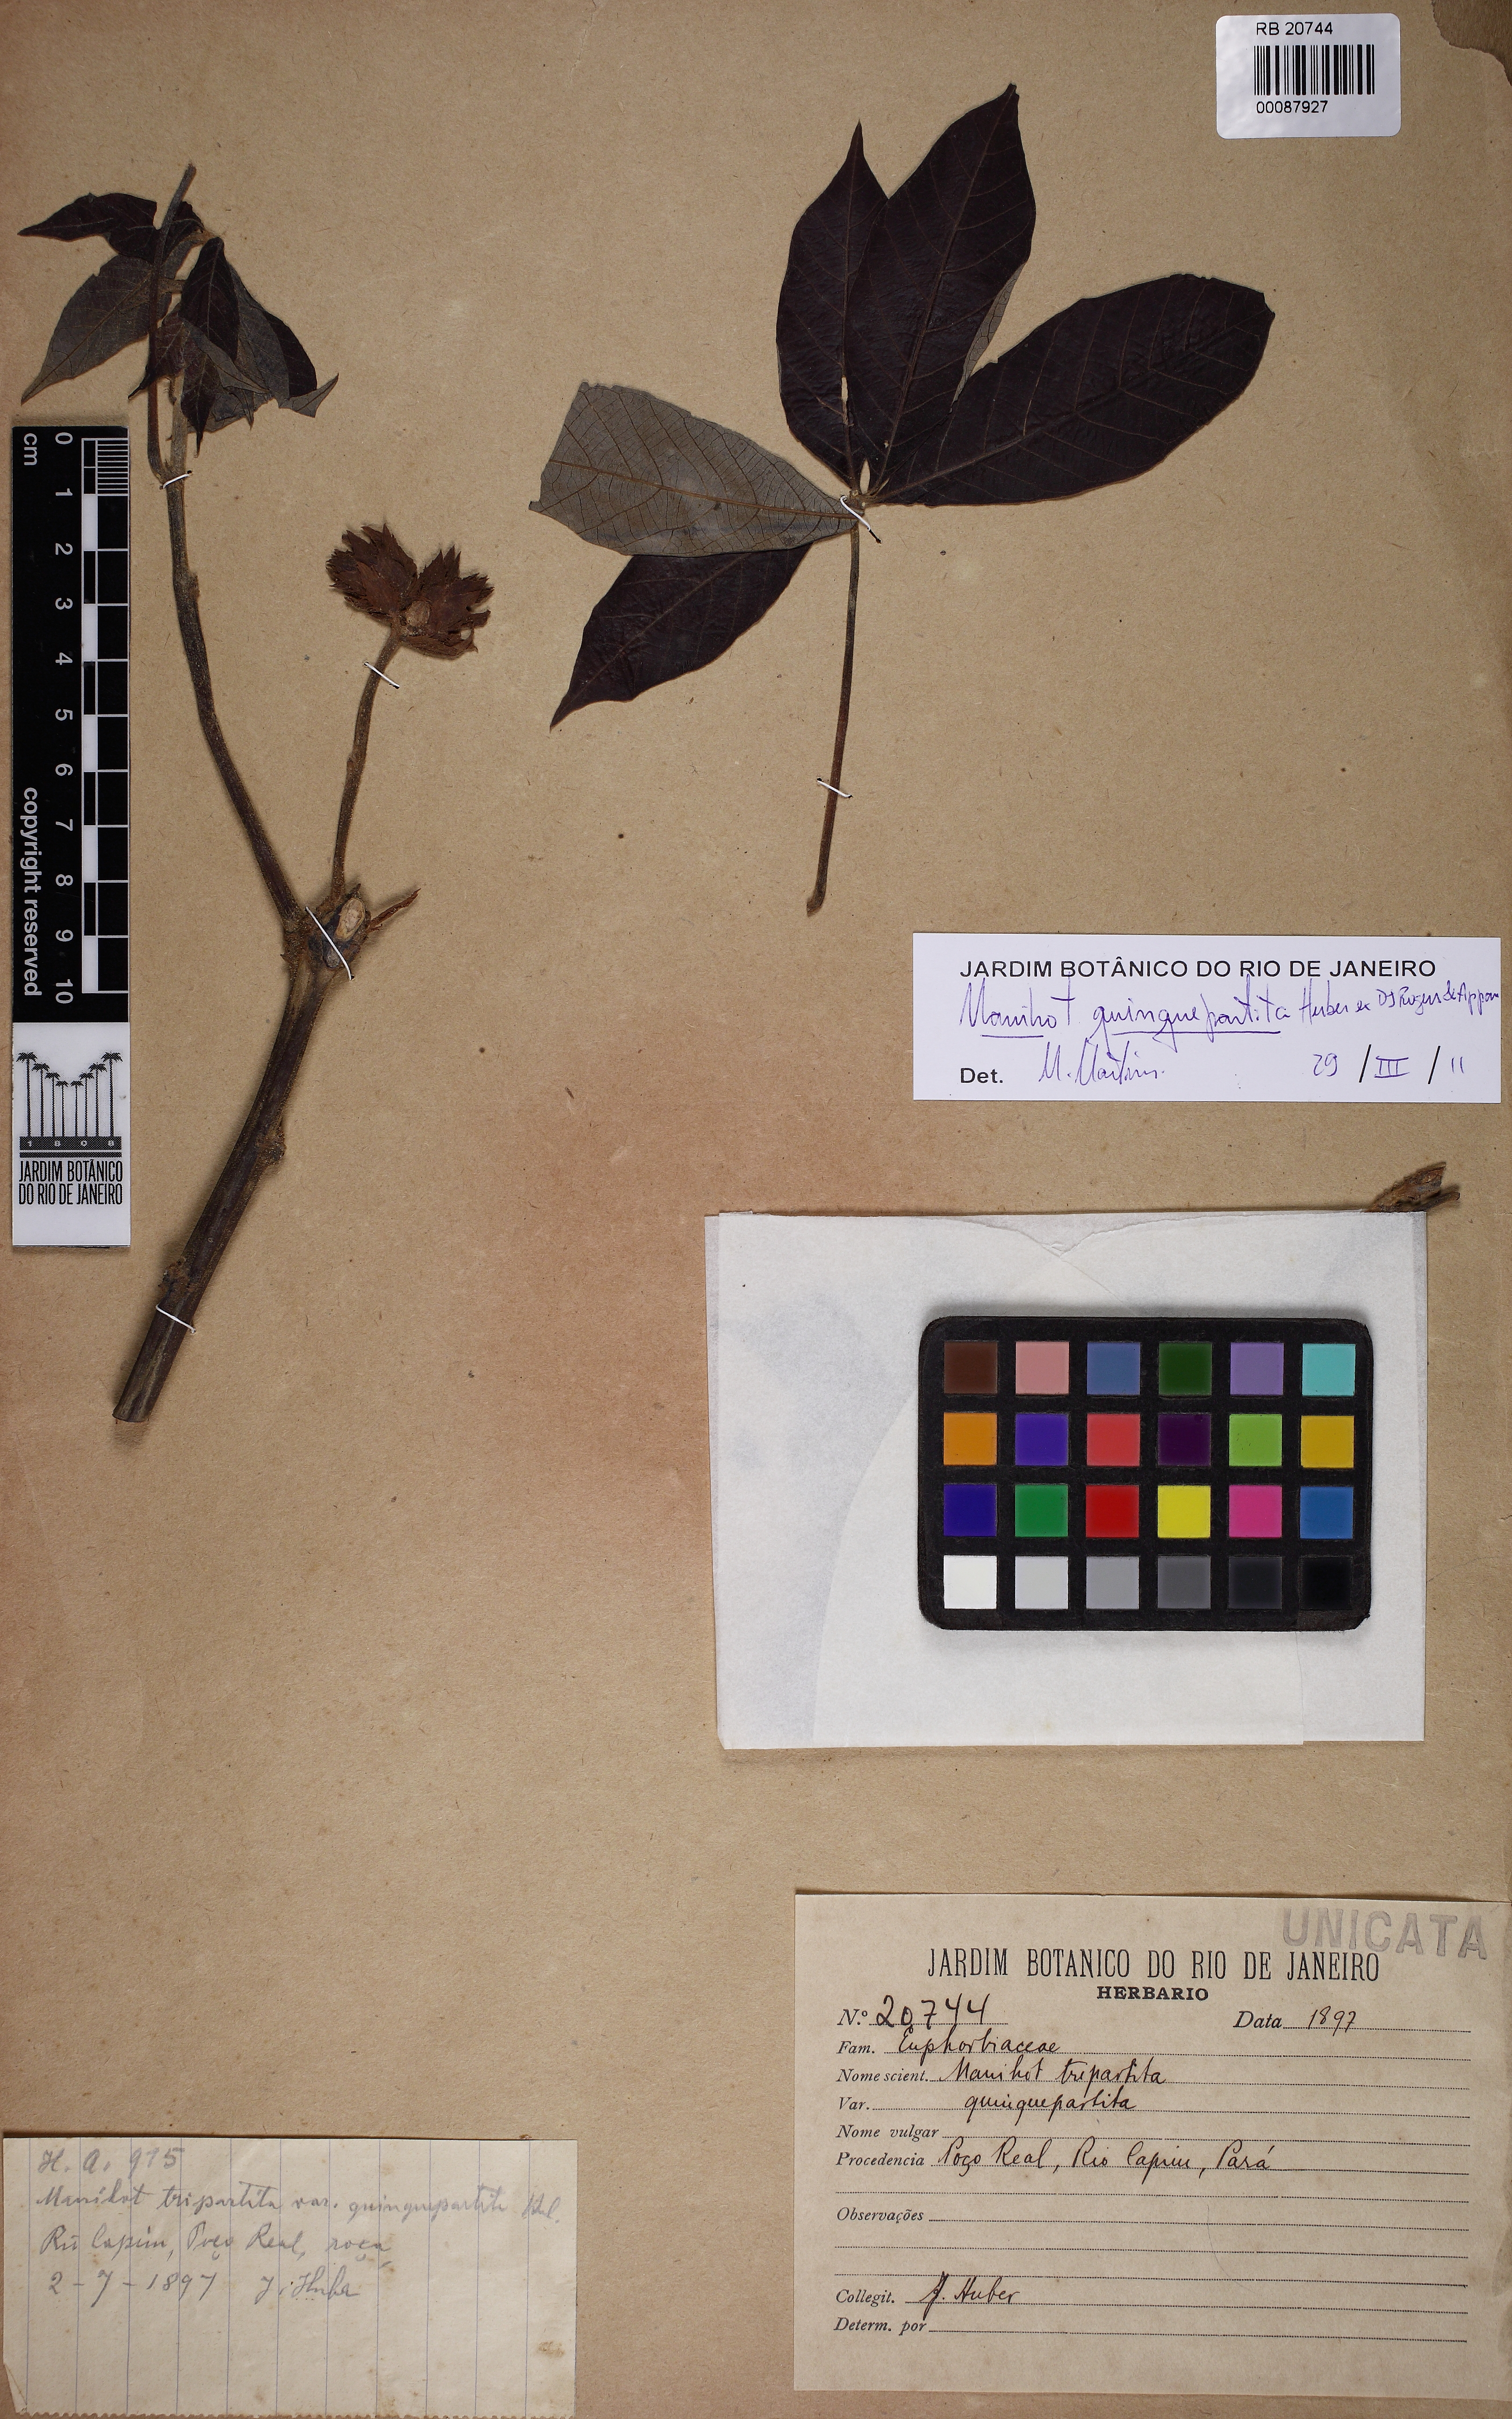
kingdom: Plantae
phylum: Tracheophyta
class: Magnoliopsida
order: Malpighiales
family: Euphorbiaceae
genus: Manihot
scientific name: Manihot quinquepartita
